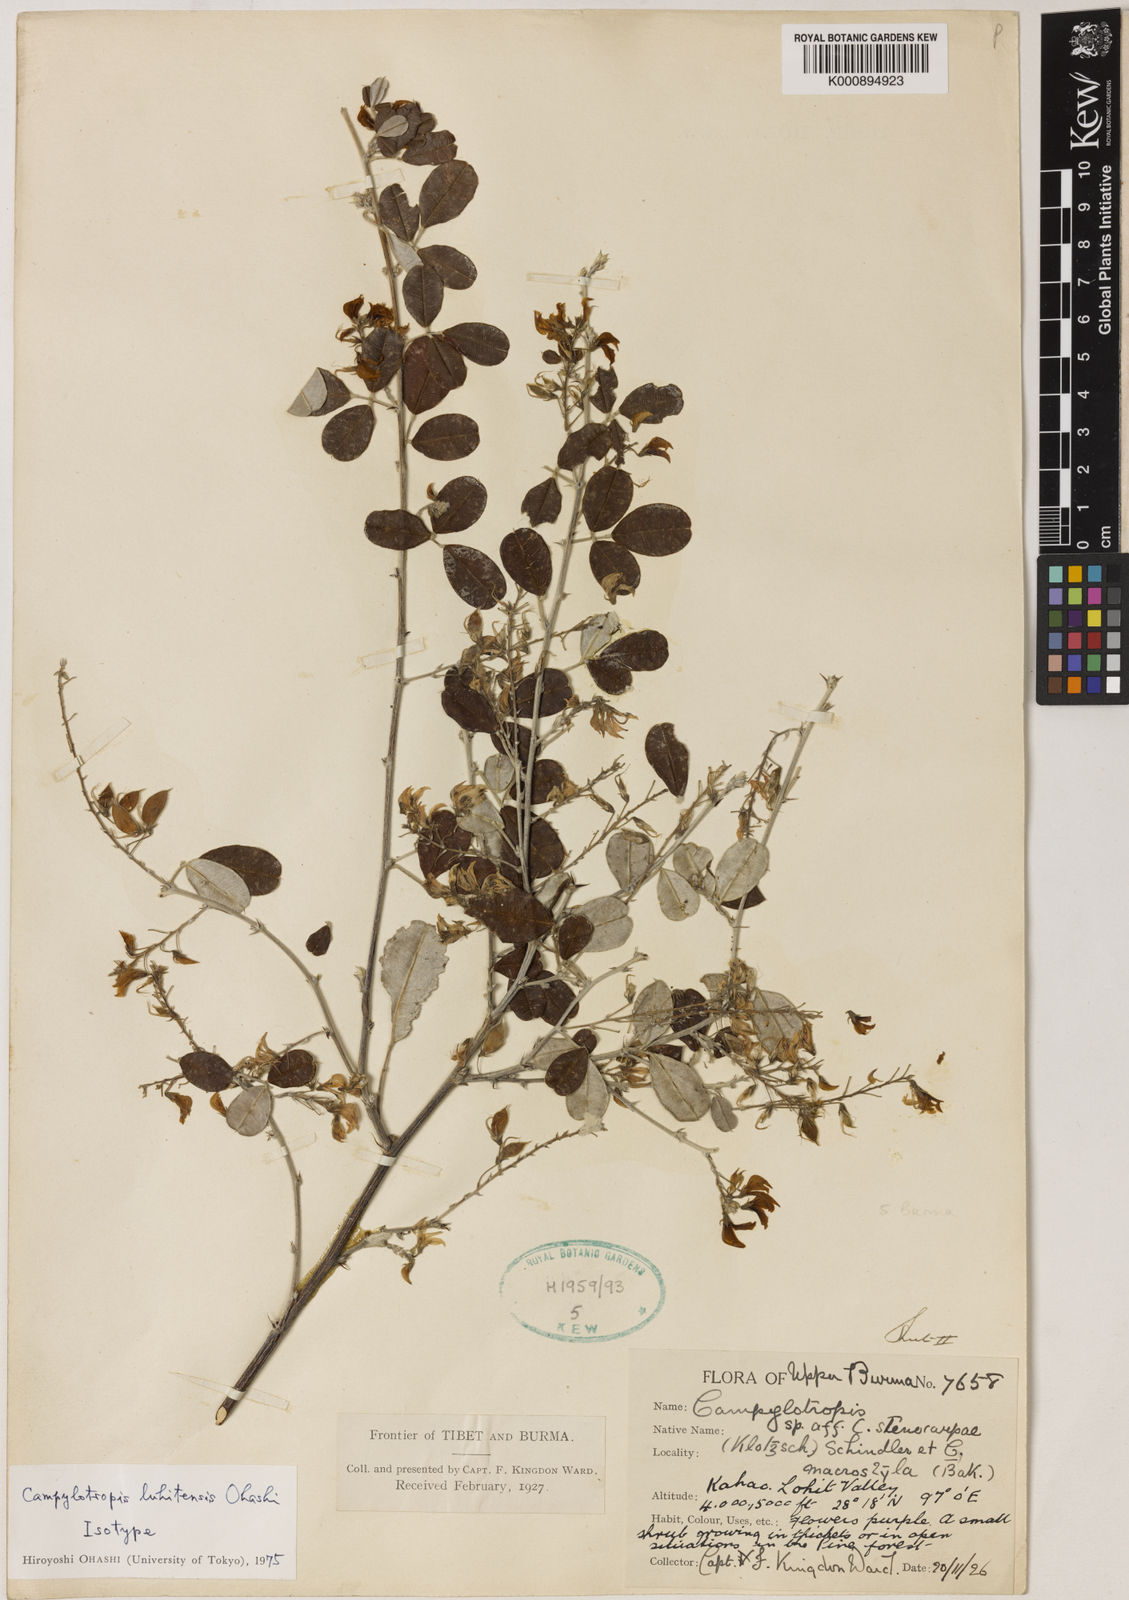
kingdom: Plantae
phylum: Tracheophyta
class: Magnoliopsida
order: Fabales
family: Fabaceae
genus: Campylotropis
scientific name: Campylotropis luhitensis
